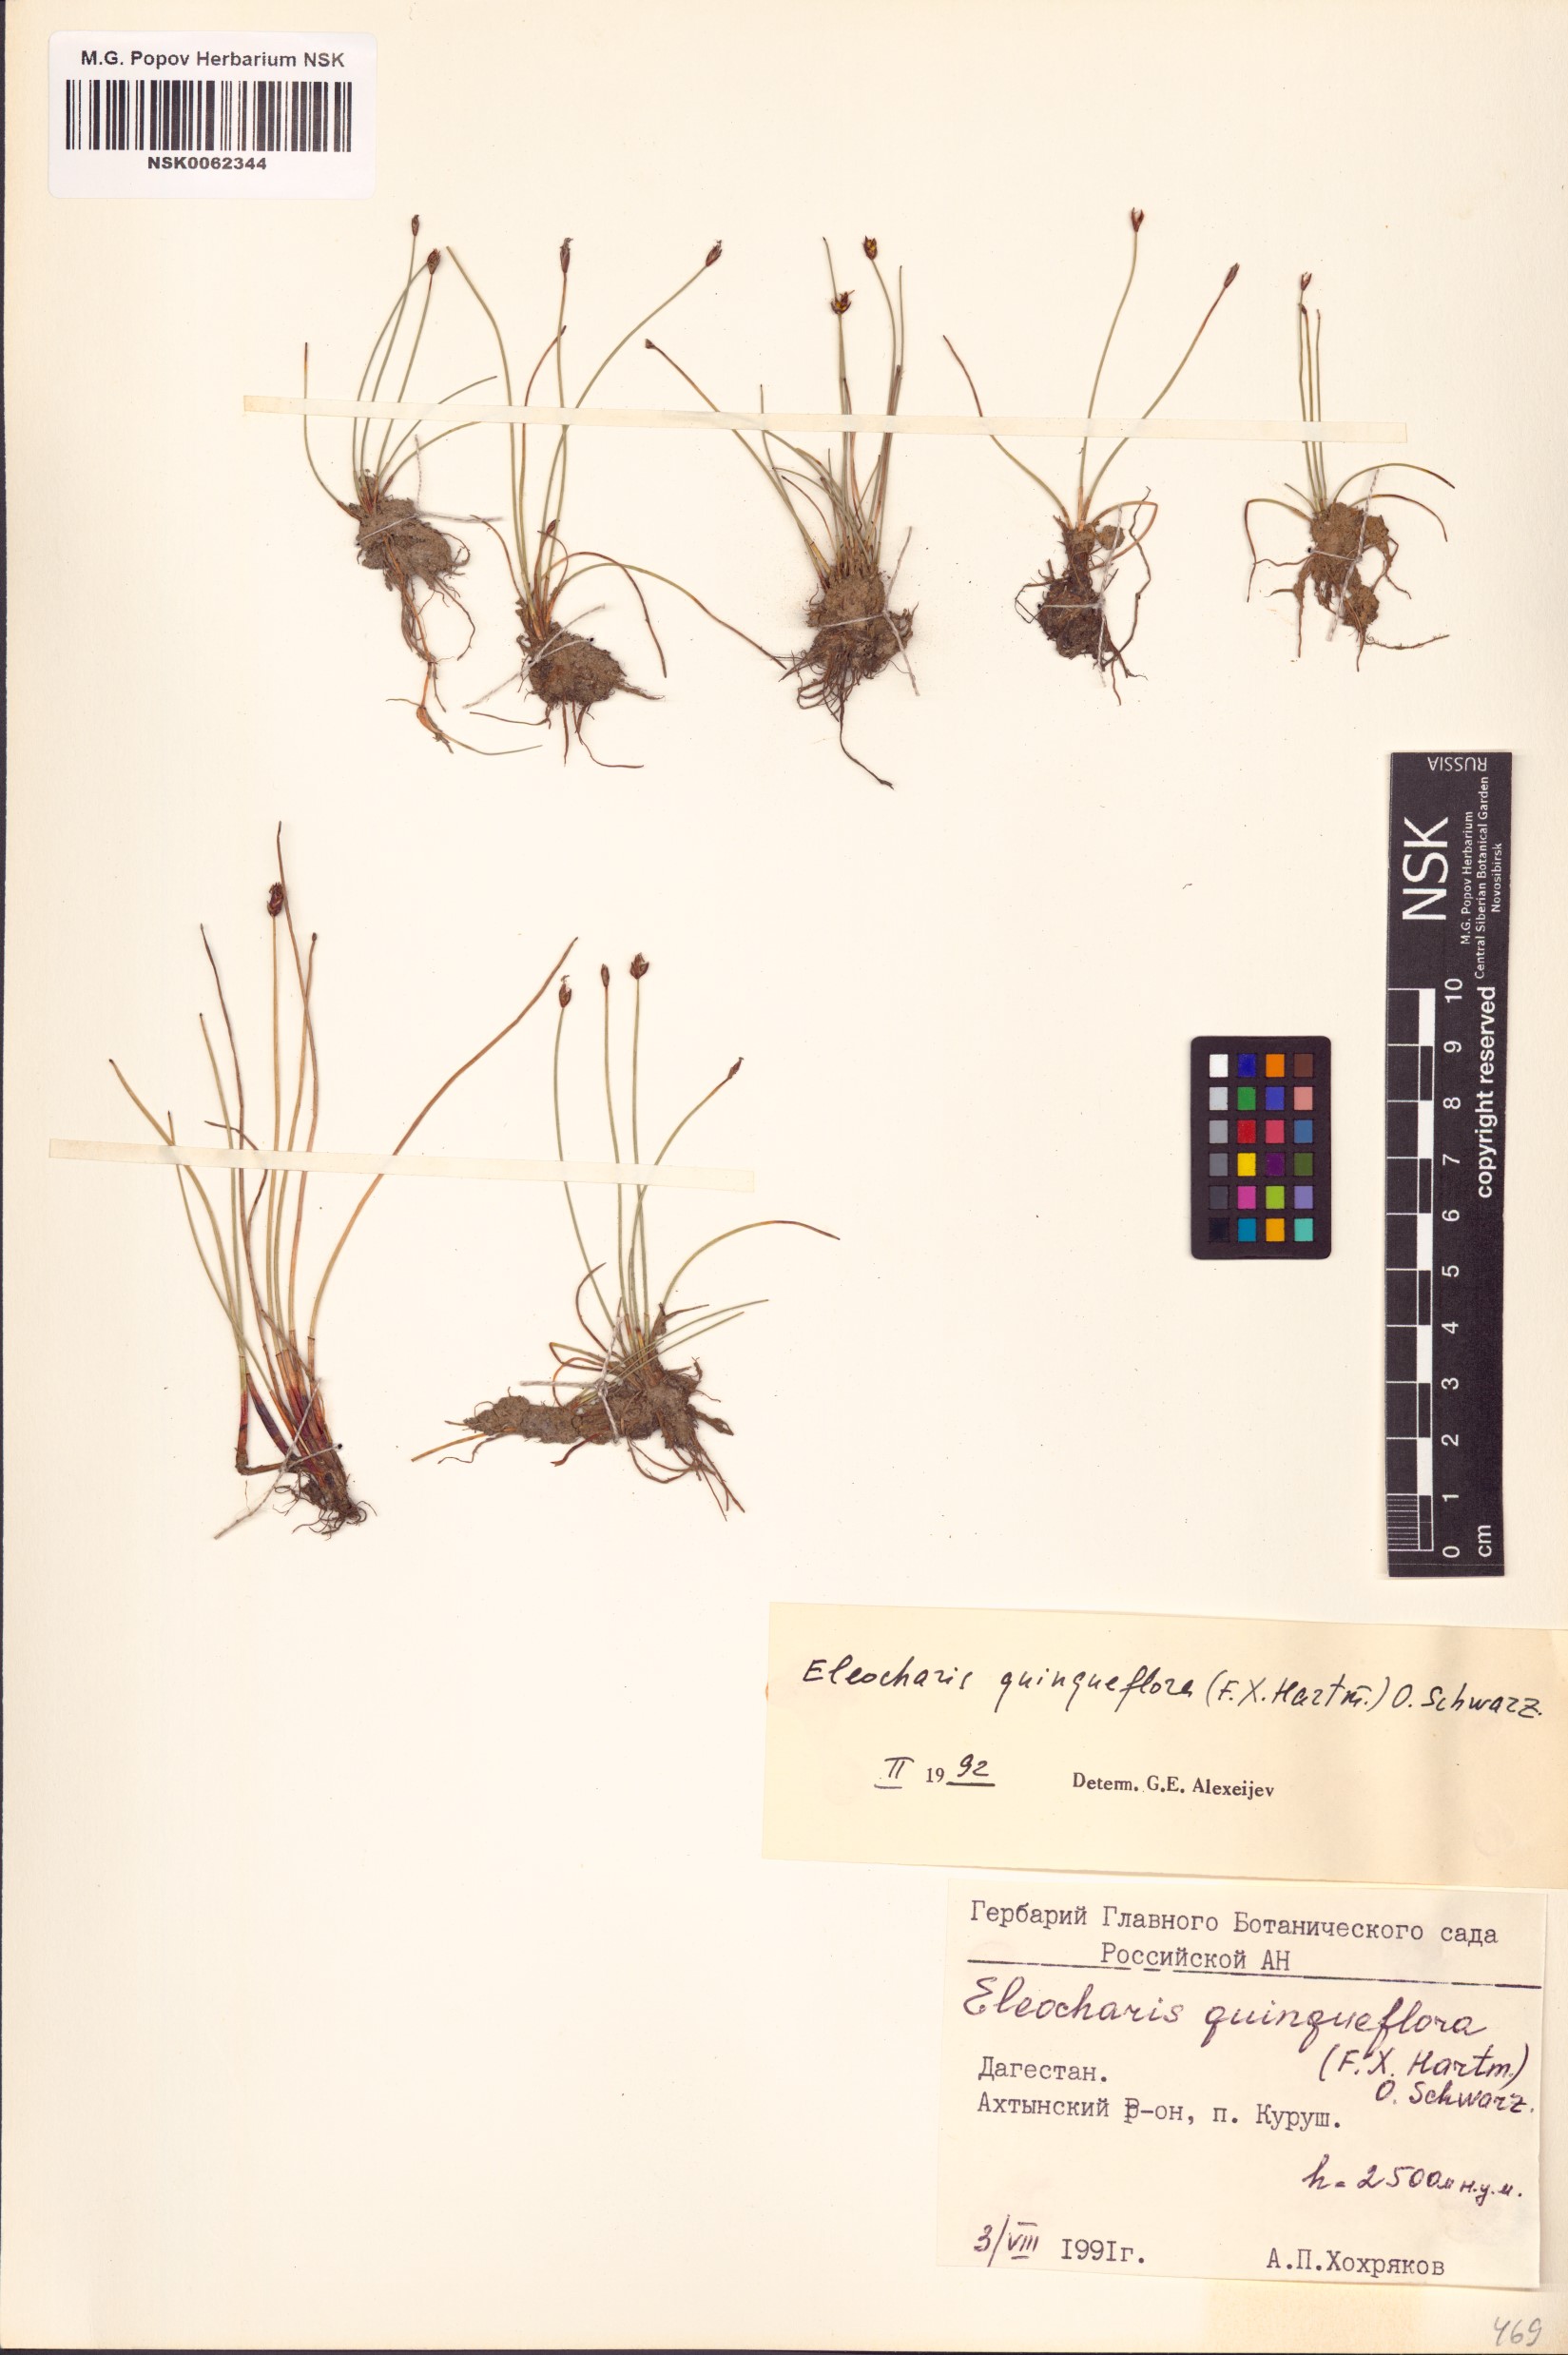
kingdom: Plantae
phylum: Tracheophyta
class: Liliopsida
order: Poales
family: Cyperaceae
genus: Eleocharis
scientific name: Eleocharis quinqueflora
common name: Few-flowered spike-rush
